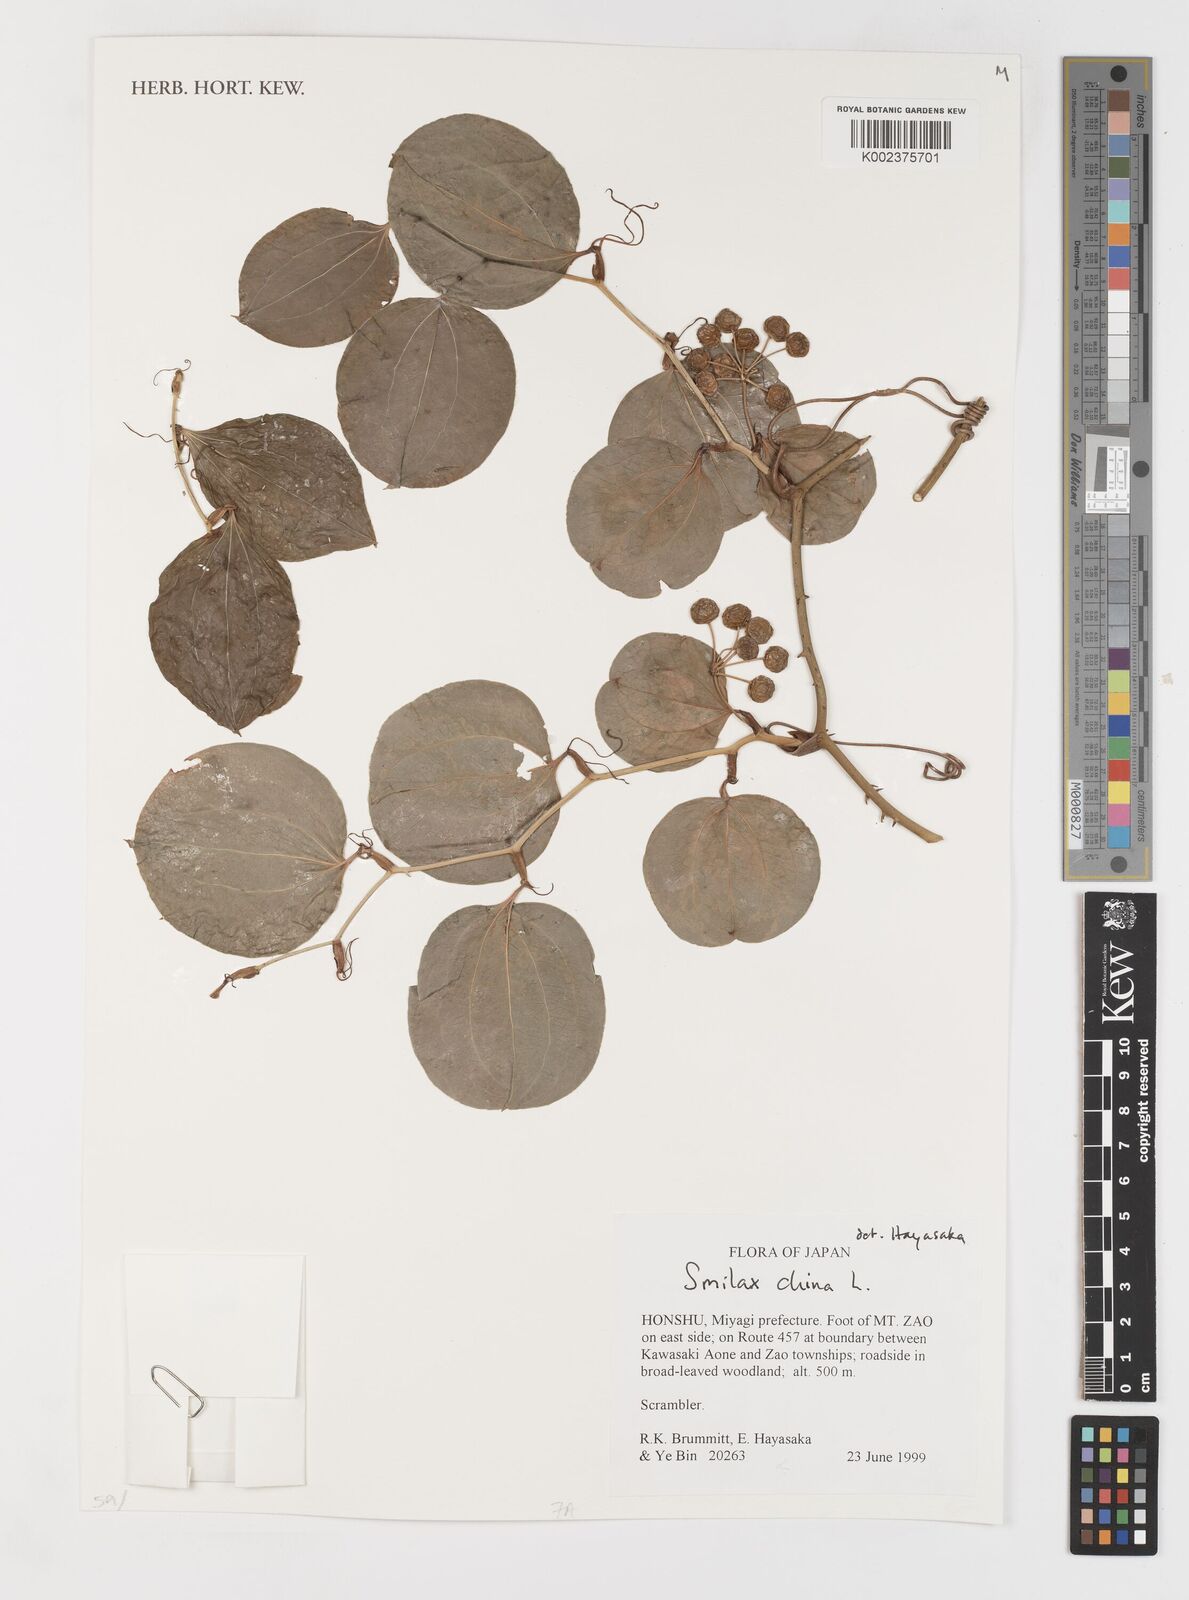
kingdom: Plantae
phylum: Tracheophyta
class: Liliopsida
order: Liliales
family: Smilacaceae
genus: Smilax
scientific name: Smilax china
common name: Chinaroot
